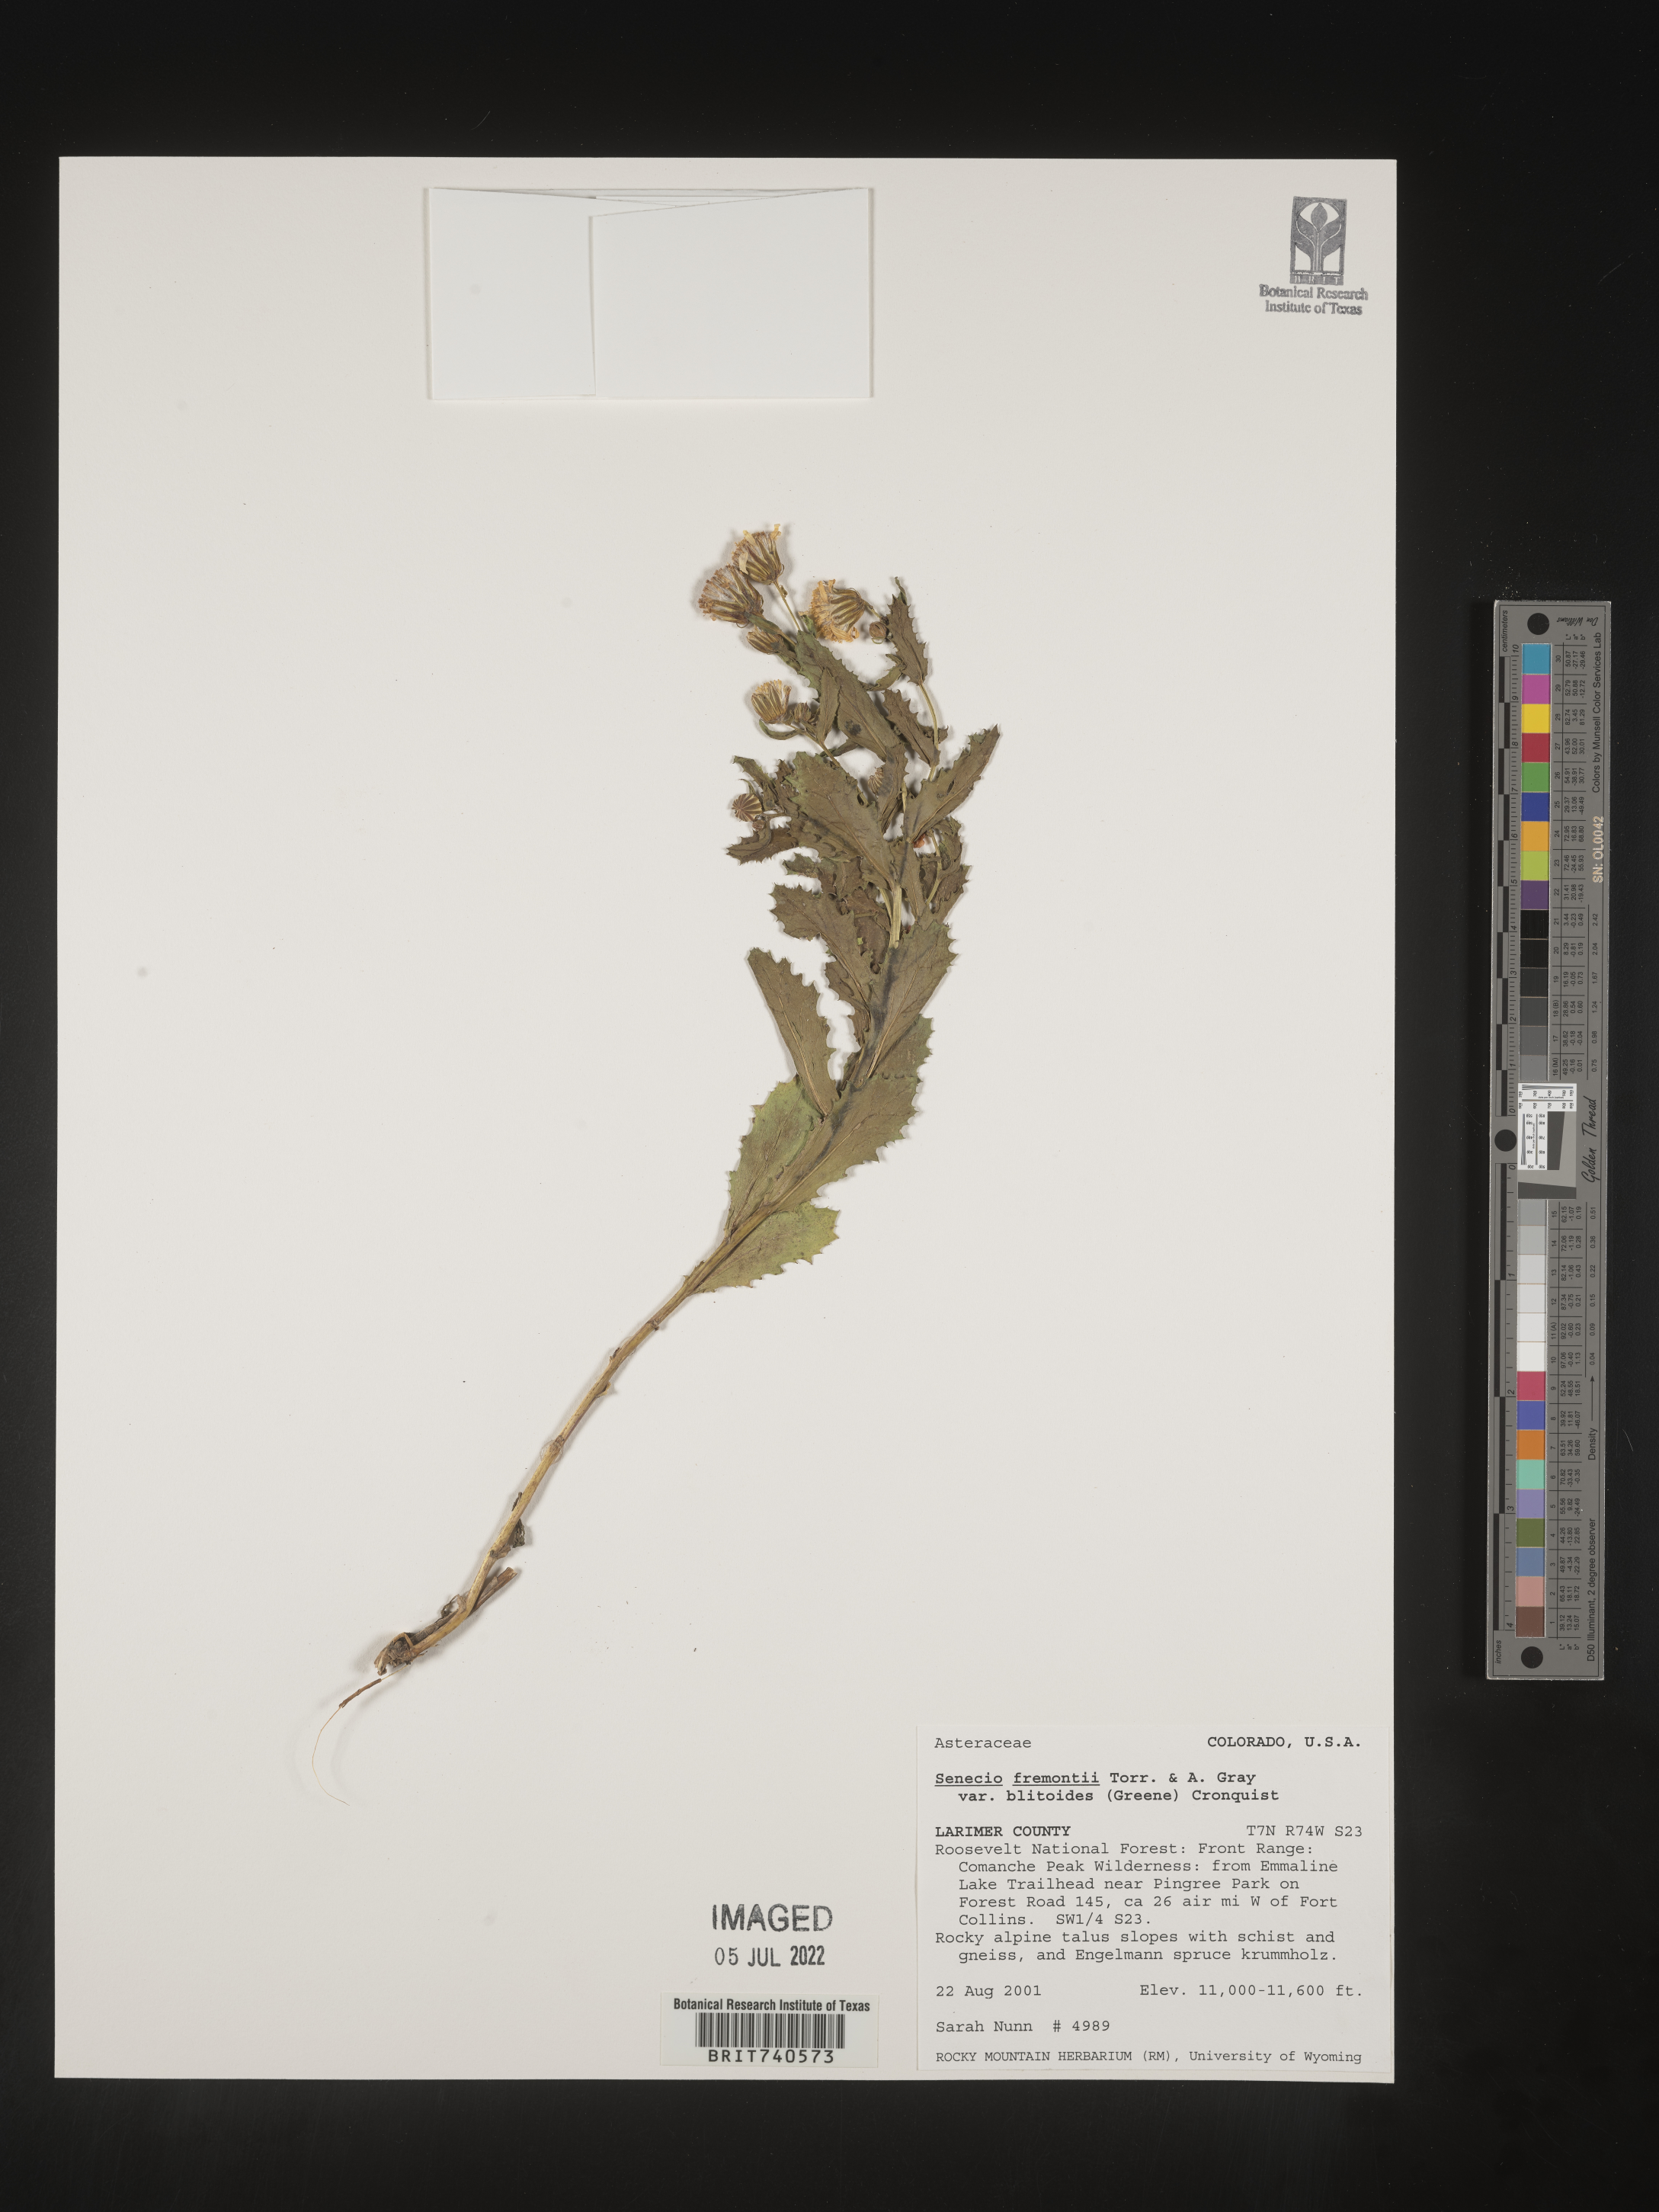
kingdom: Plantae
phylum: Tracheophyta
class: Magnoliopsida
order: Asterales
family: Asteraceae
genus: Senecio
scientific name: Senecio blitoides
